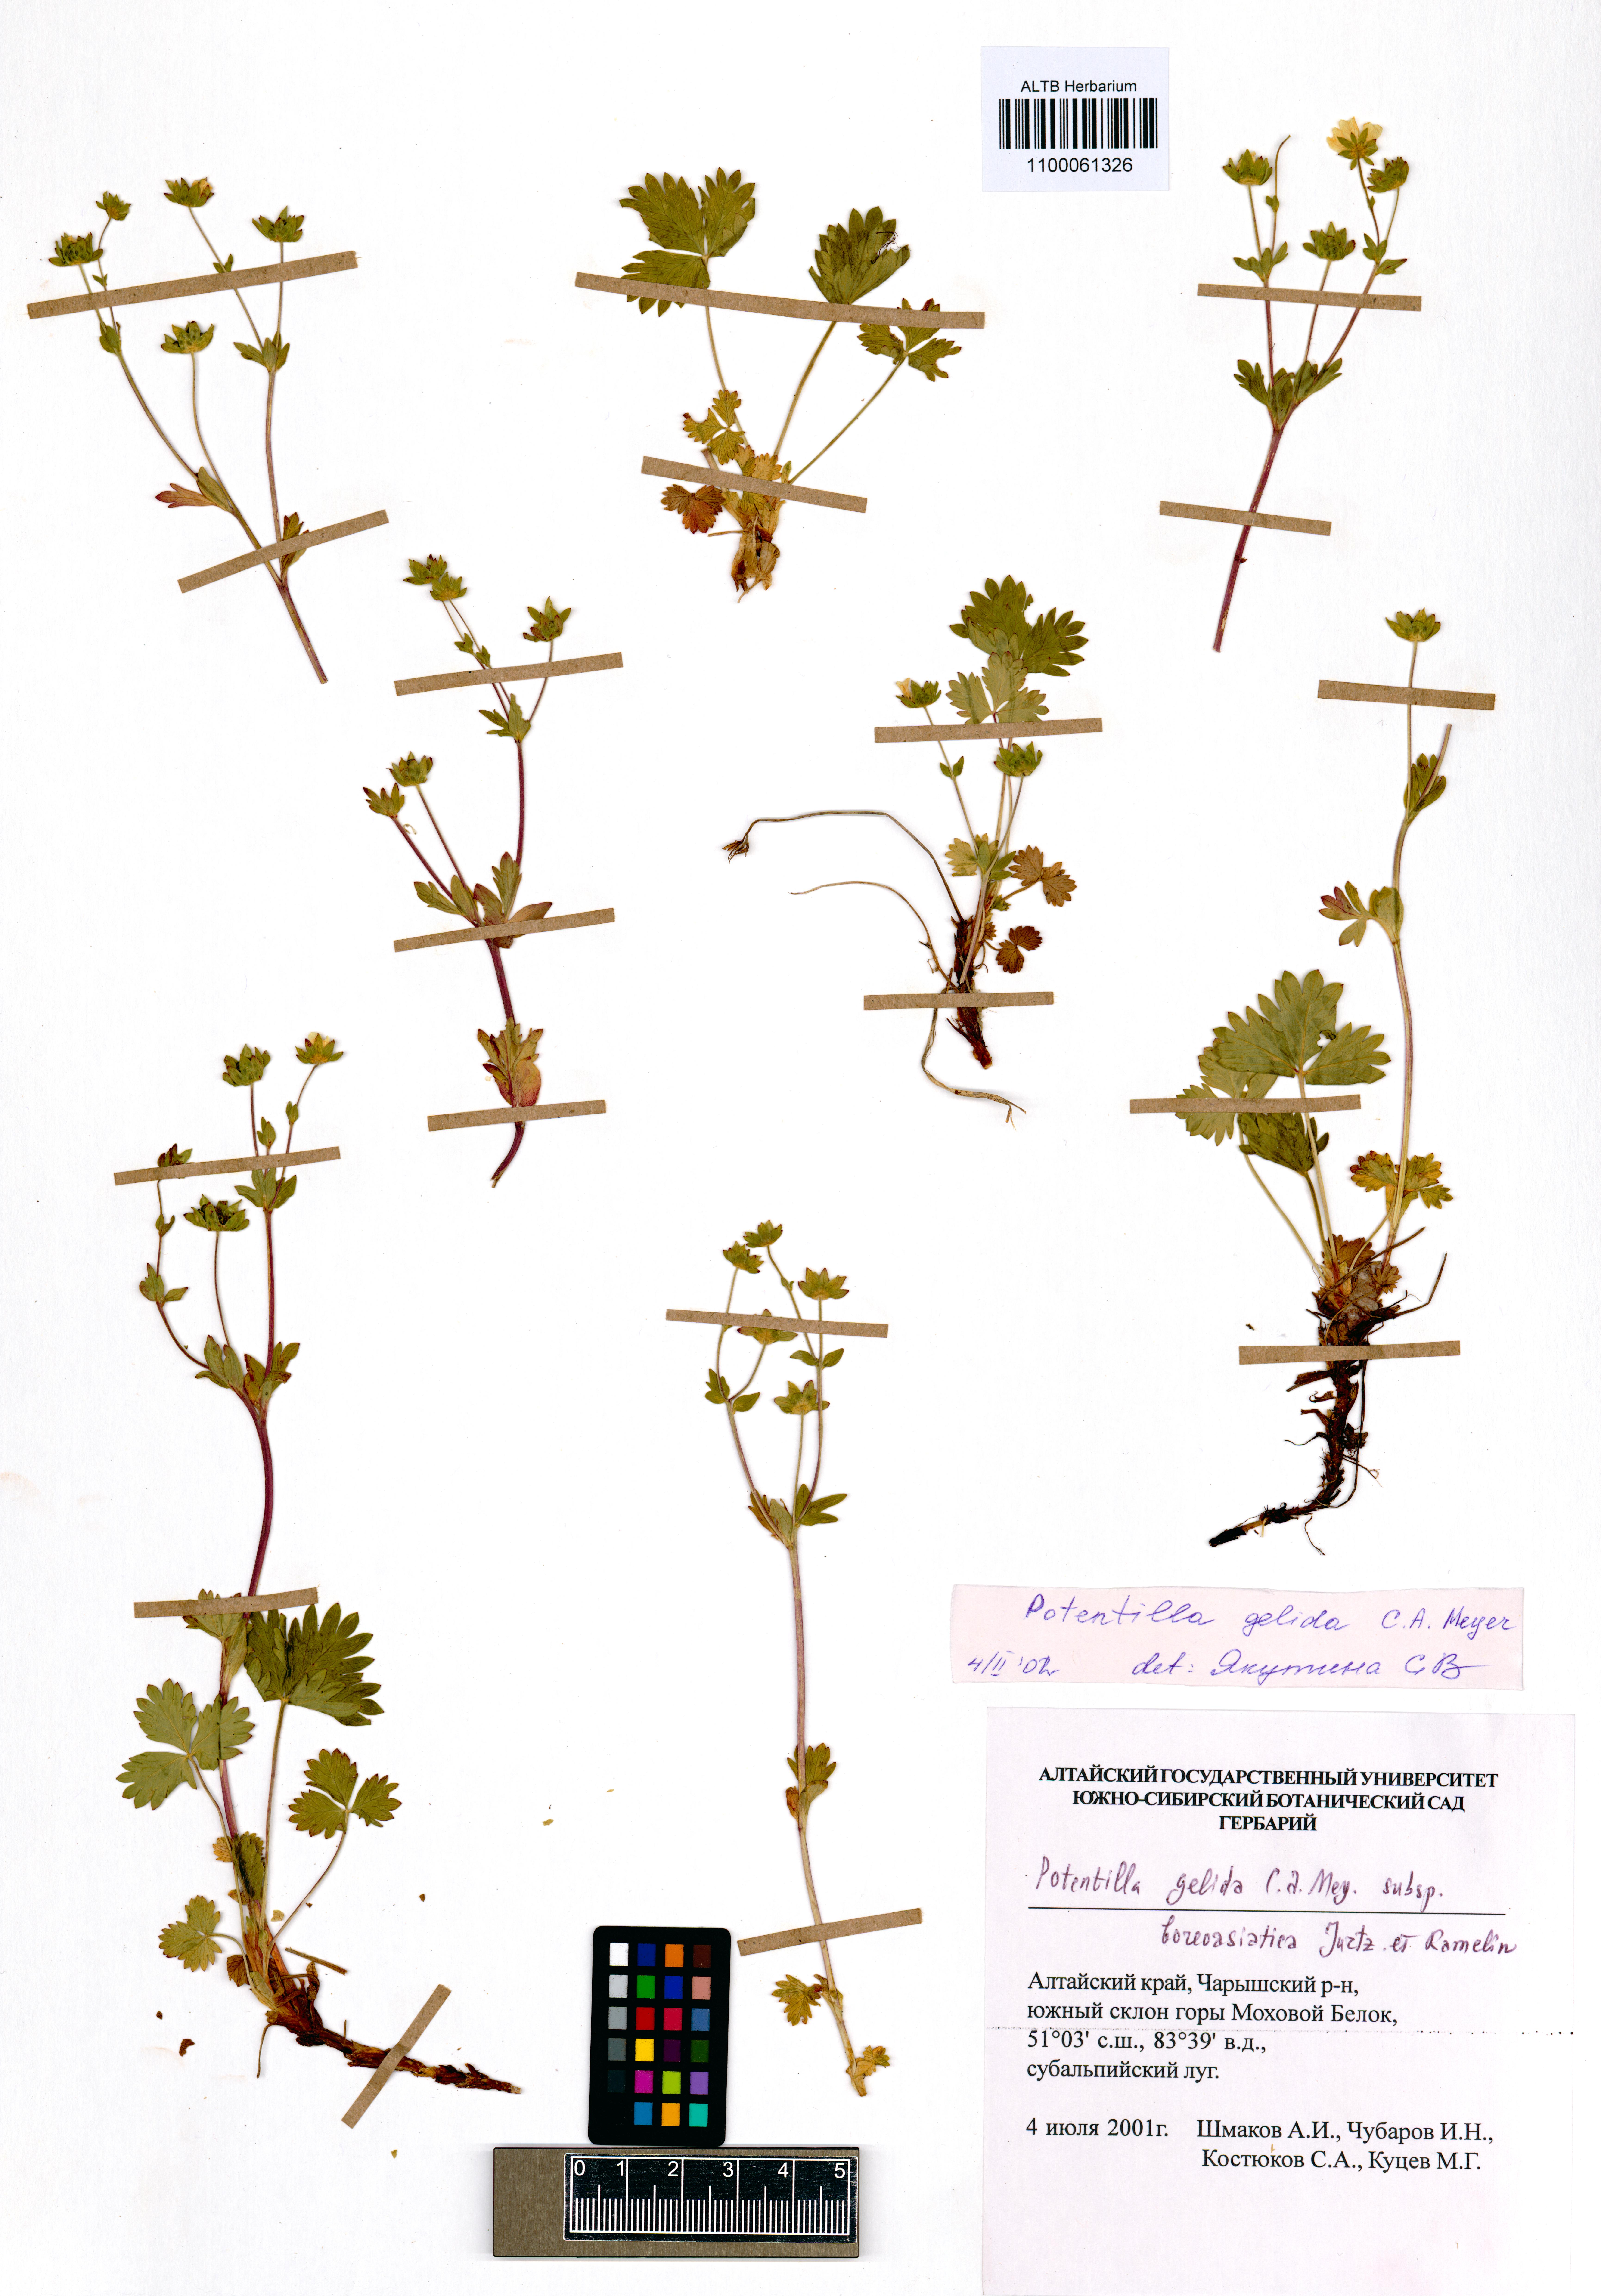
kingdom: Plantae
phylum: Tracheophyta
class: Magnoliopsida
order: Rosales
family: Rosaceae
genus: Potentilla
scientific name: Potentilla crantzii
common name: Alpine cinquefoil
